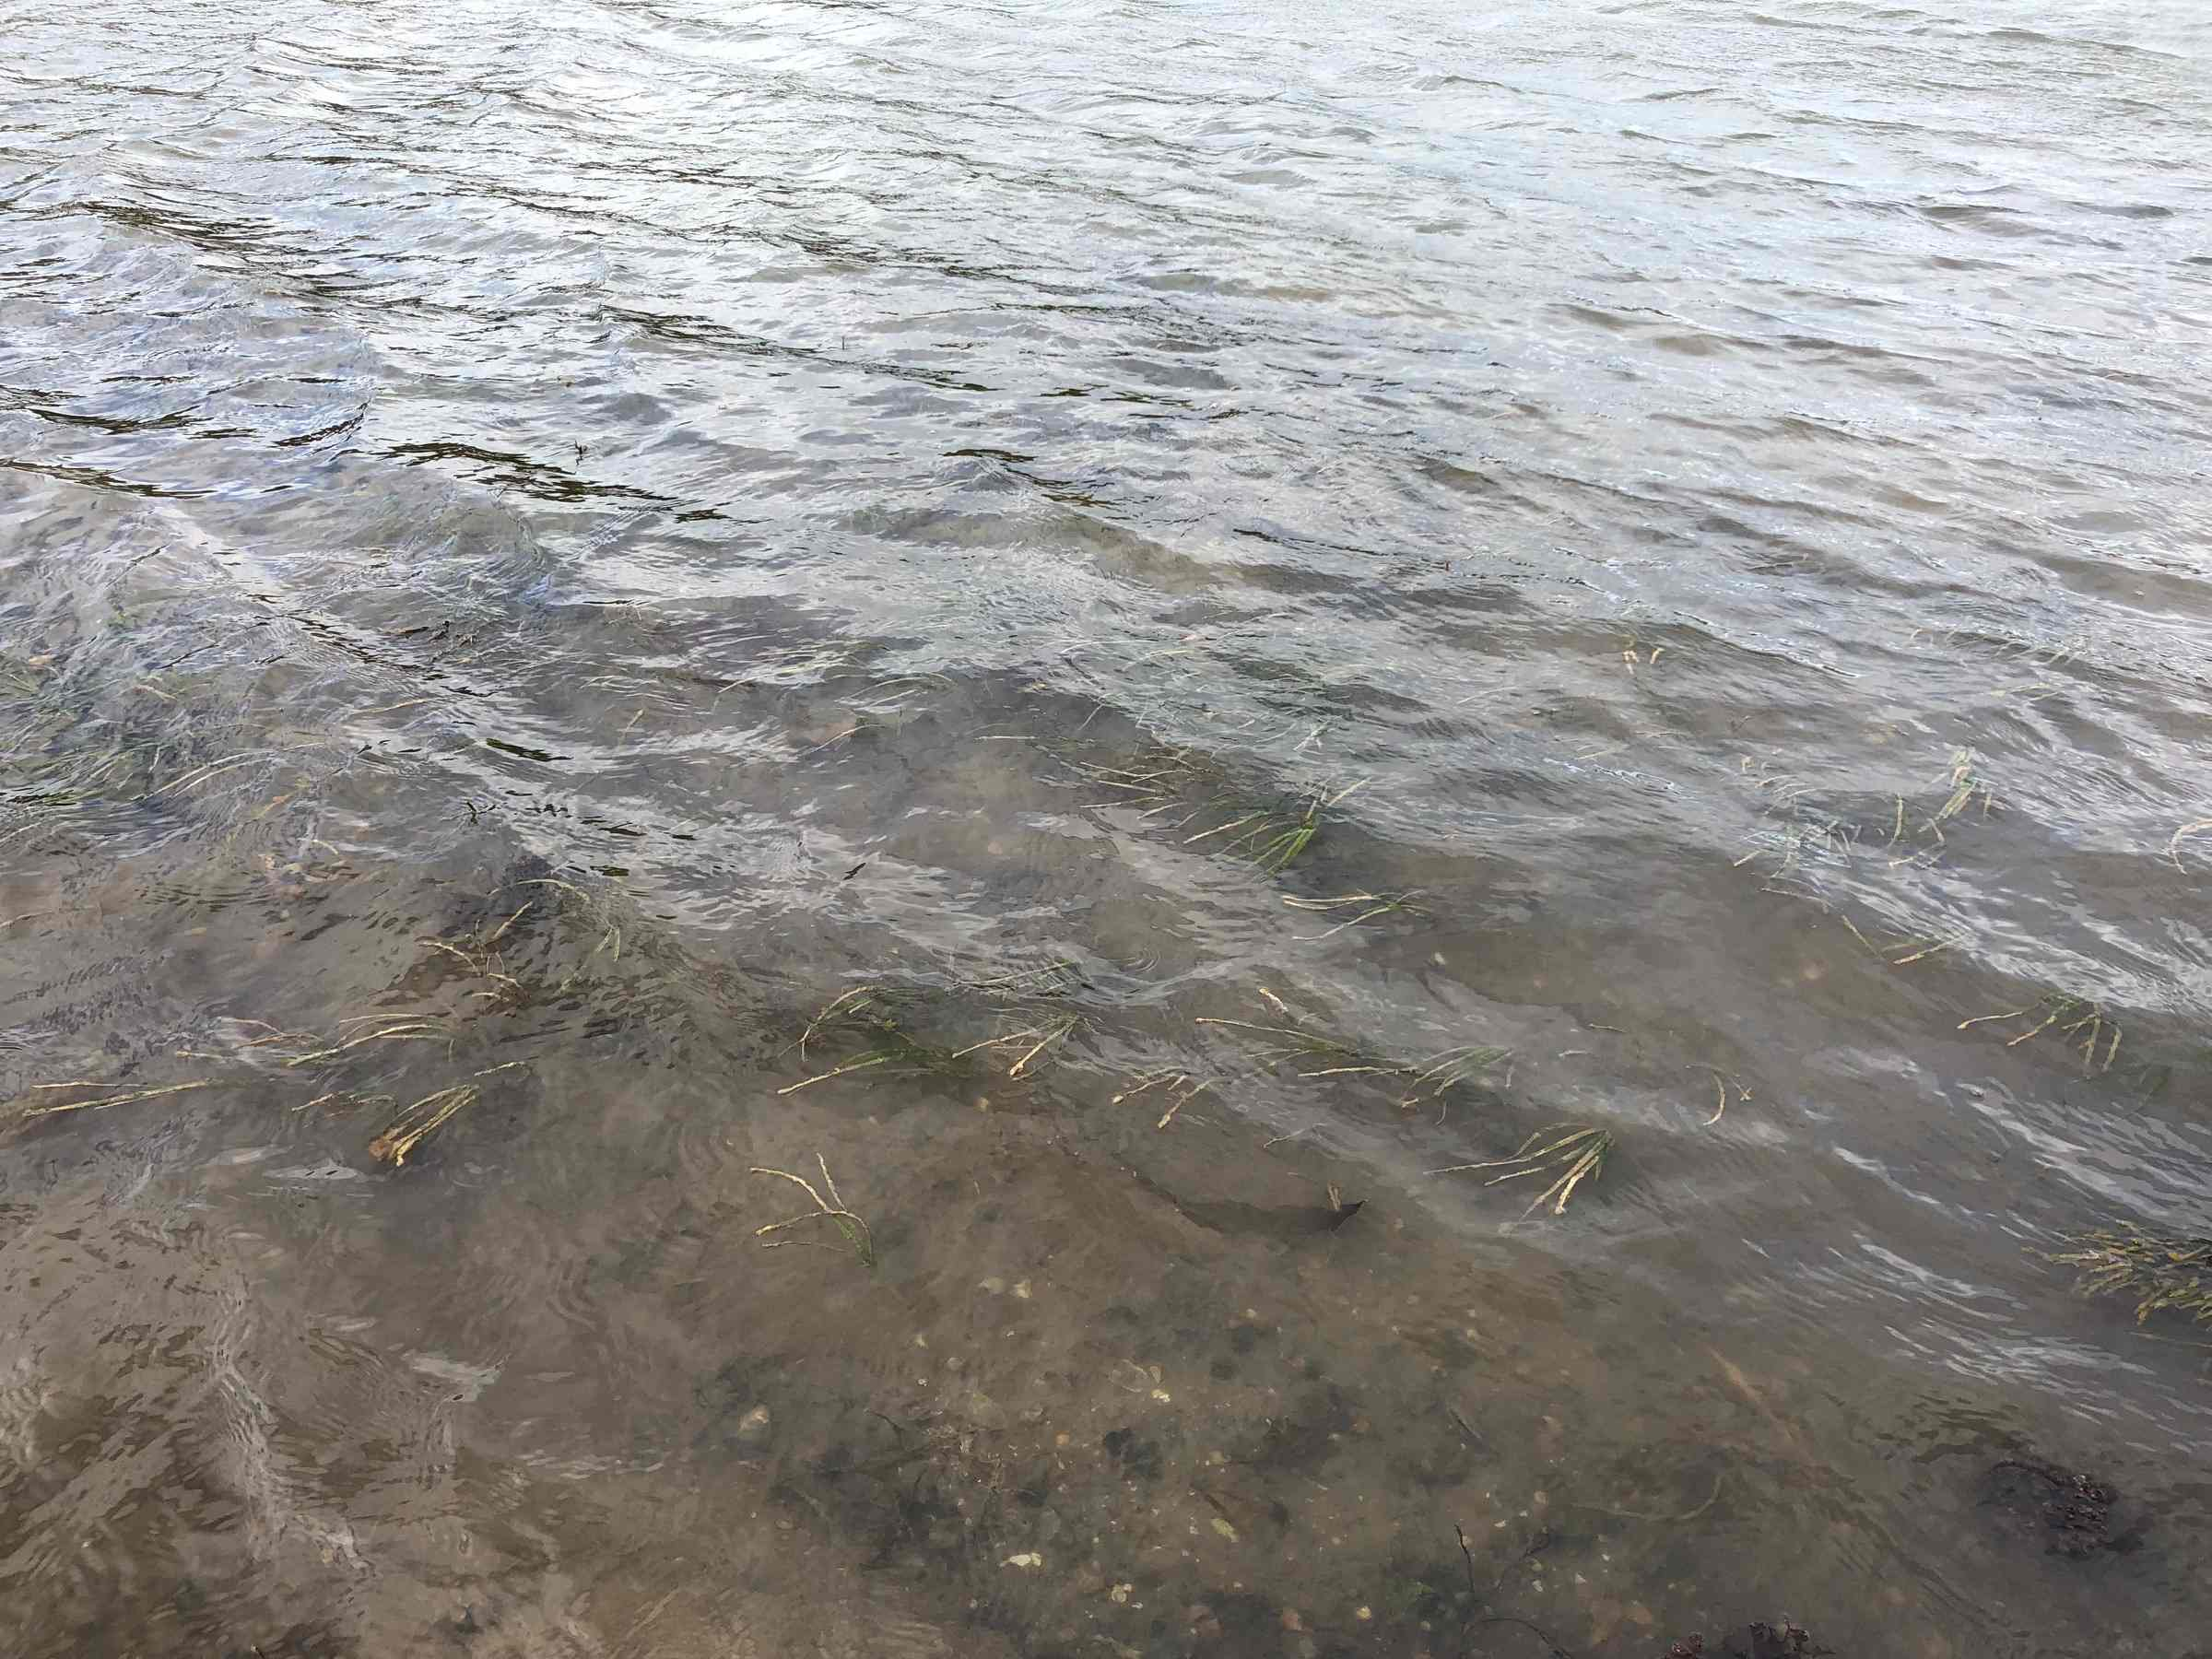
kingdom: Plantae
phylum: Tracheophyta
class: Liliopsida
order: Alismatales
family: Zosteraceae
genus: Zostera
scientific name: Zostera marina
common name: Eelgrass
